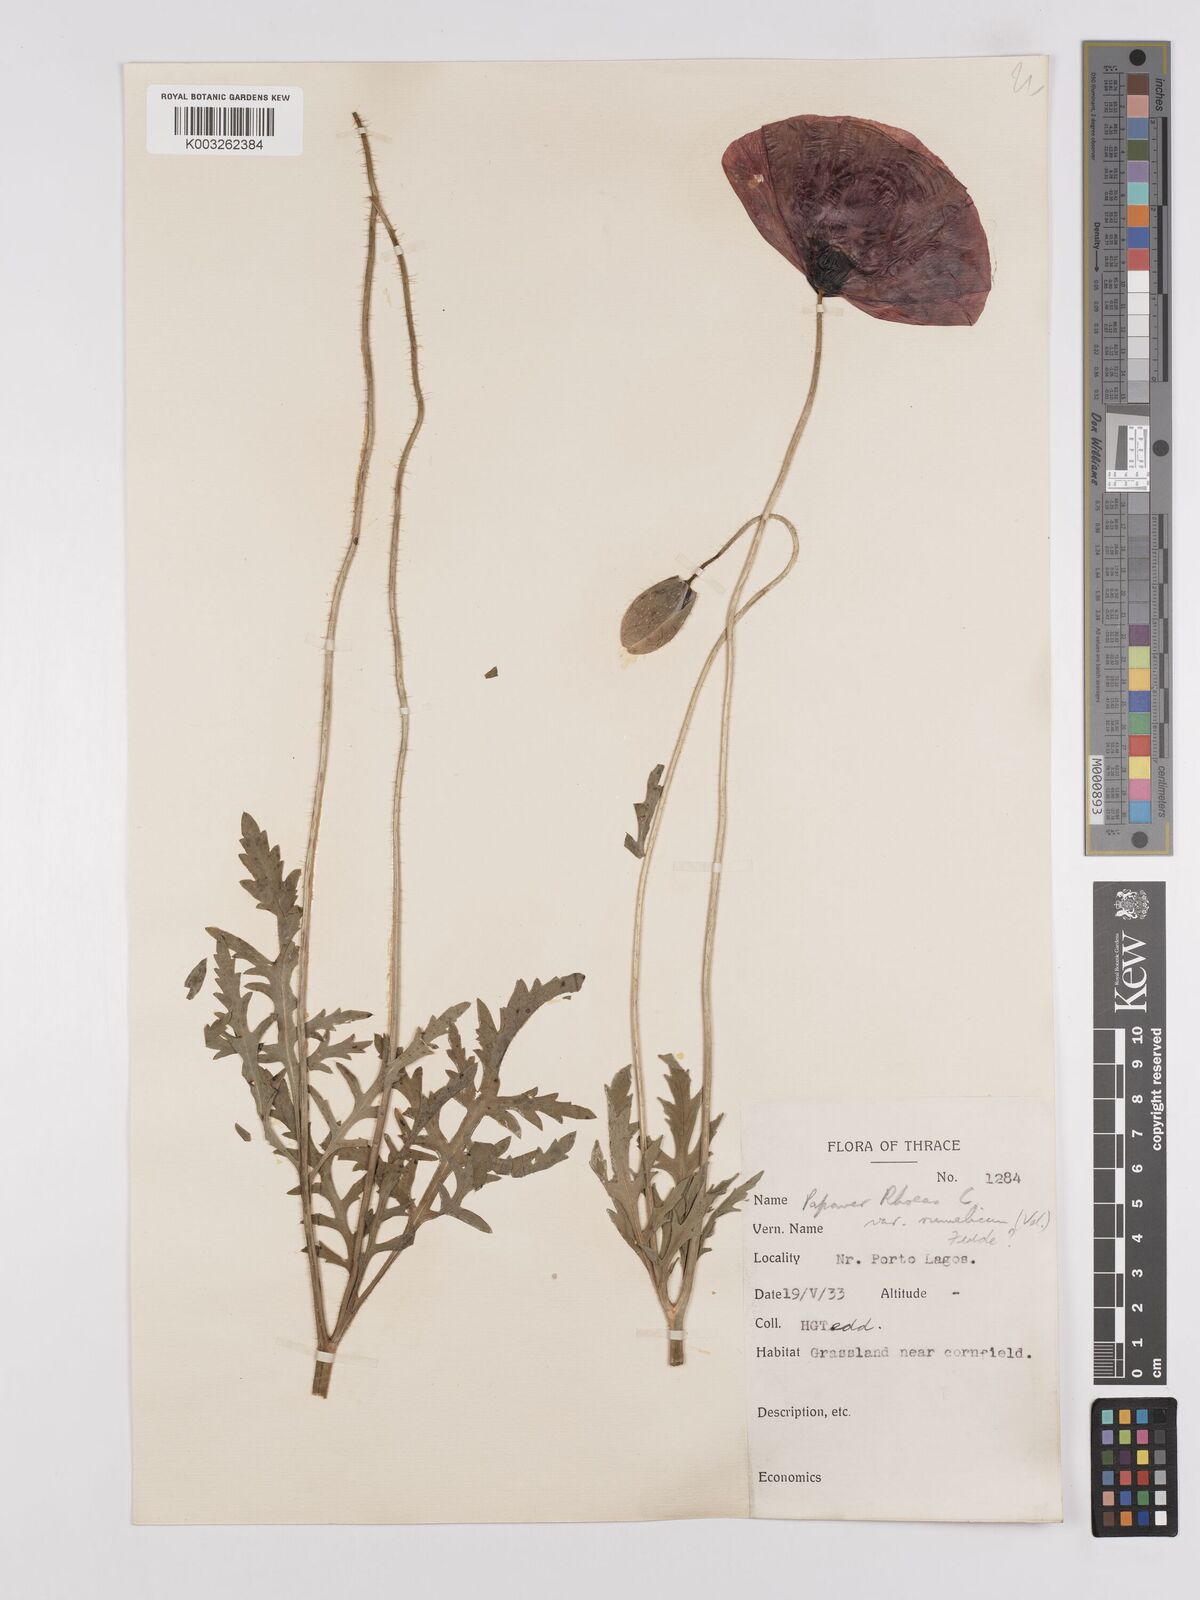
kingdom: Plantae
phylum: Tracheophyta
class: Magnoliopsida
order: Ranunculales
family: Papaveraceae
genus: Papaver
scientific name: Papaver rhoeas
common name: Corn poppy
